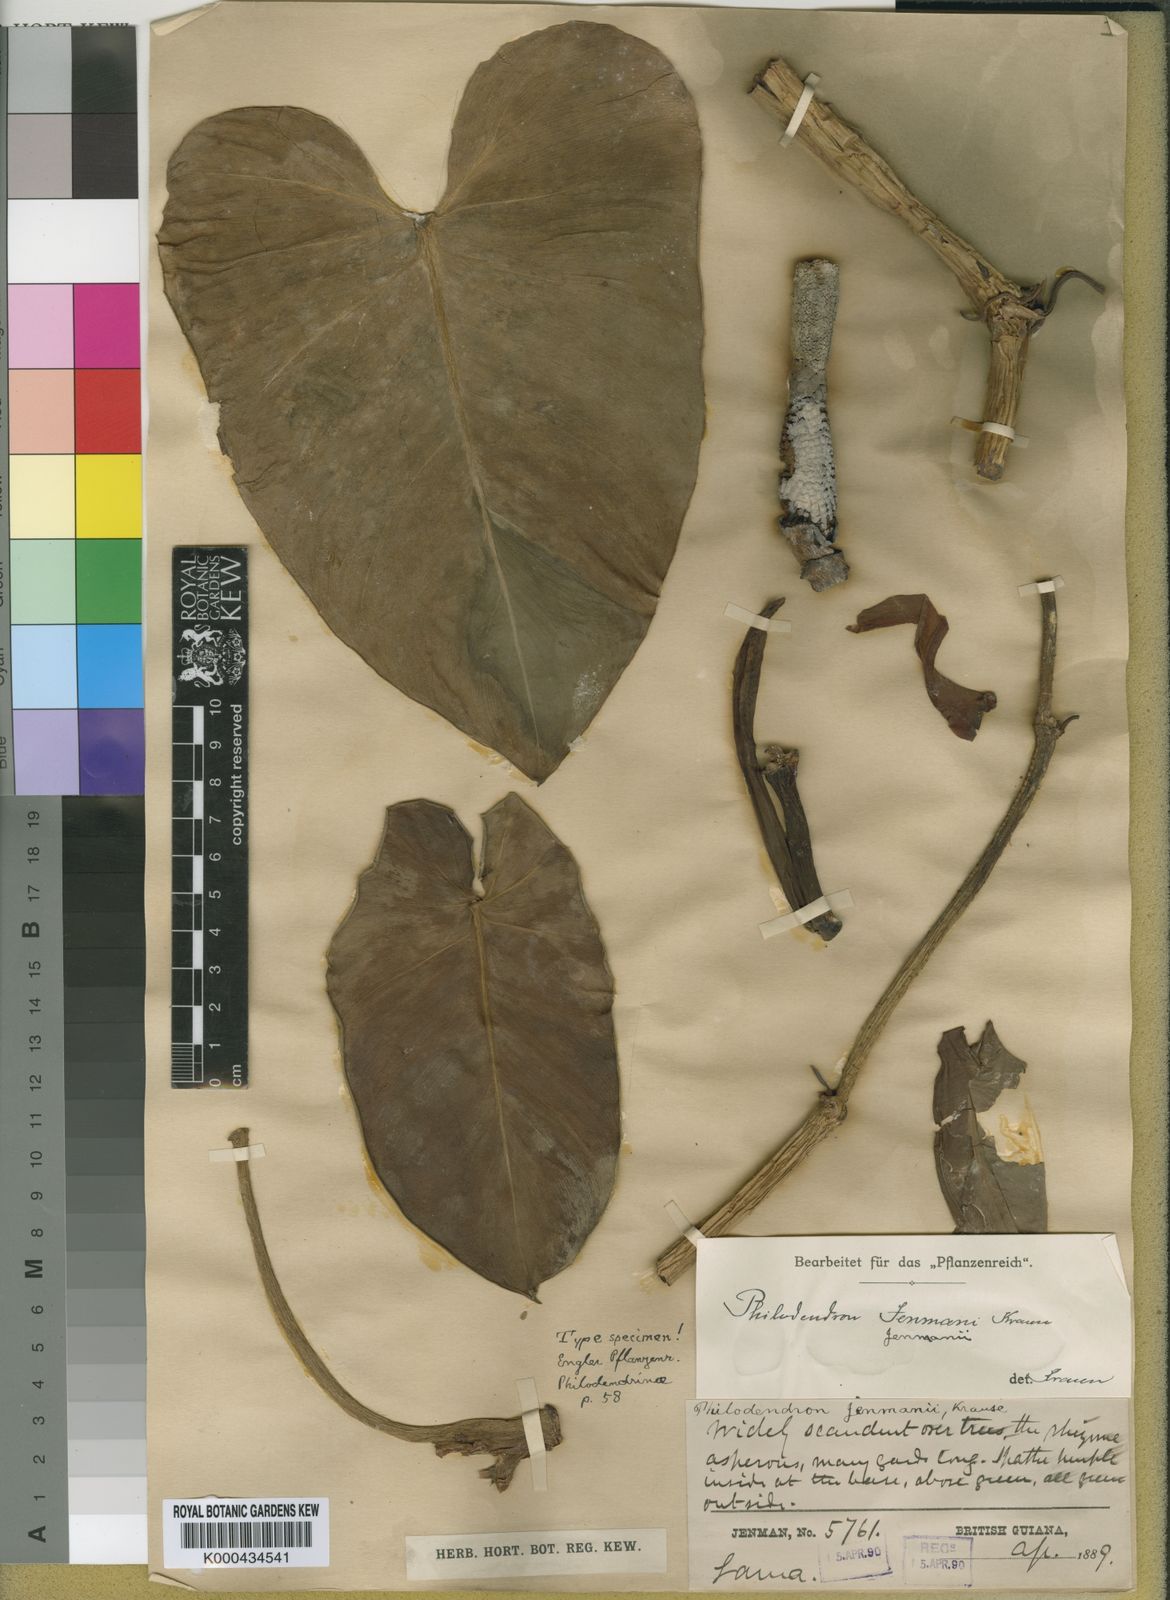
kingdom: Plantae
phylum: Tracheophyta
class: Liliopsida
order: Alismatales
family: Araceae
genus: Philodendron
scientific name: Philodendron muricatum
